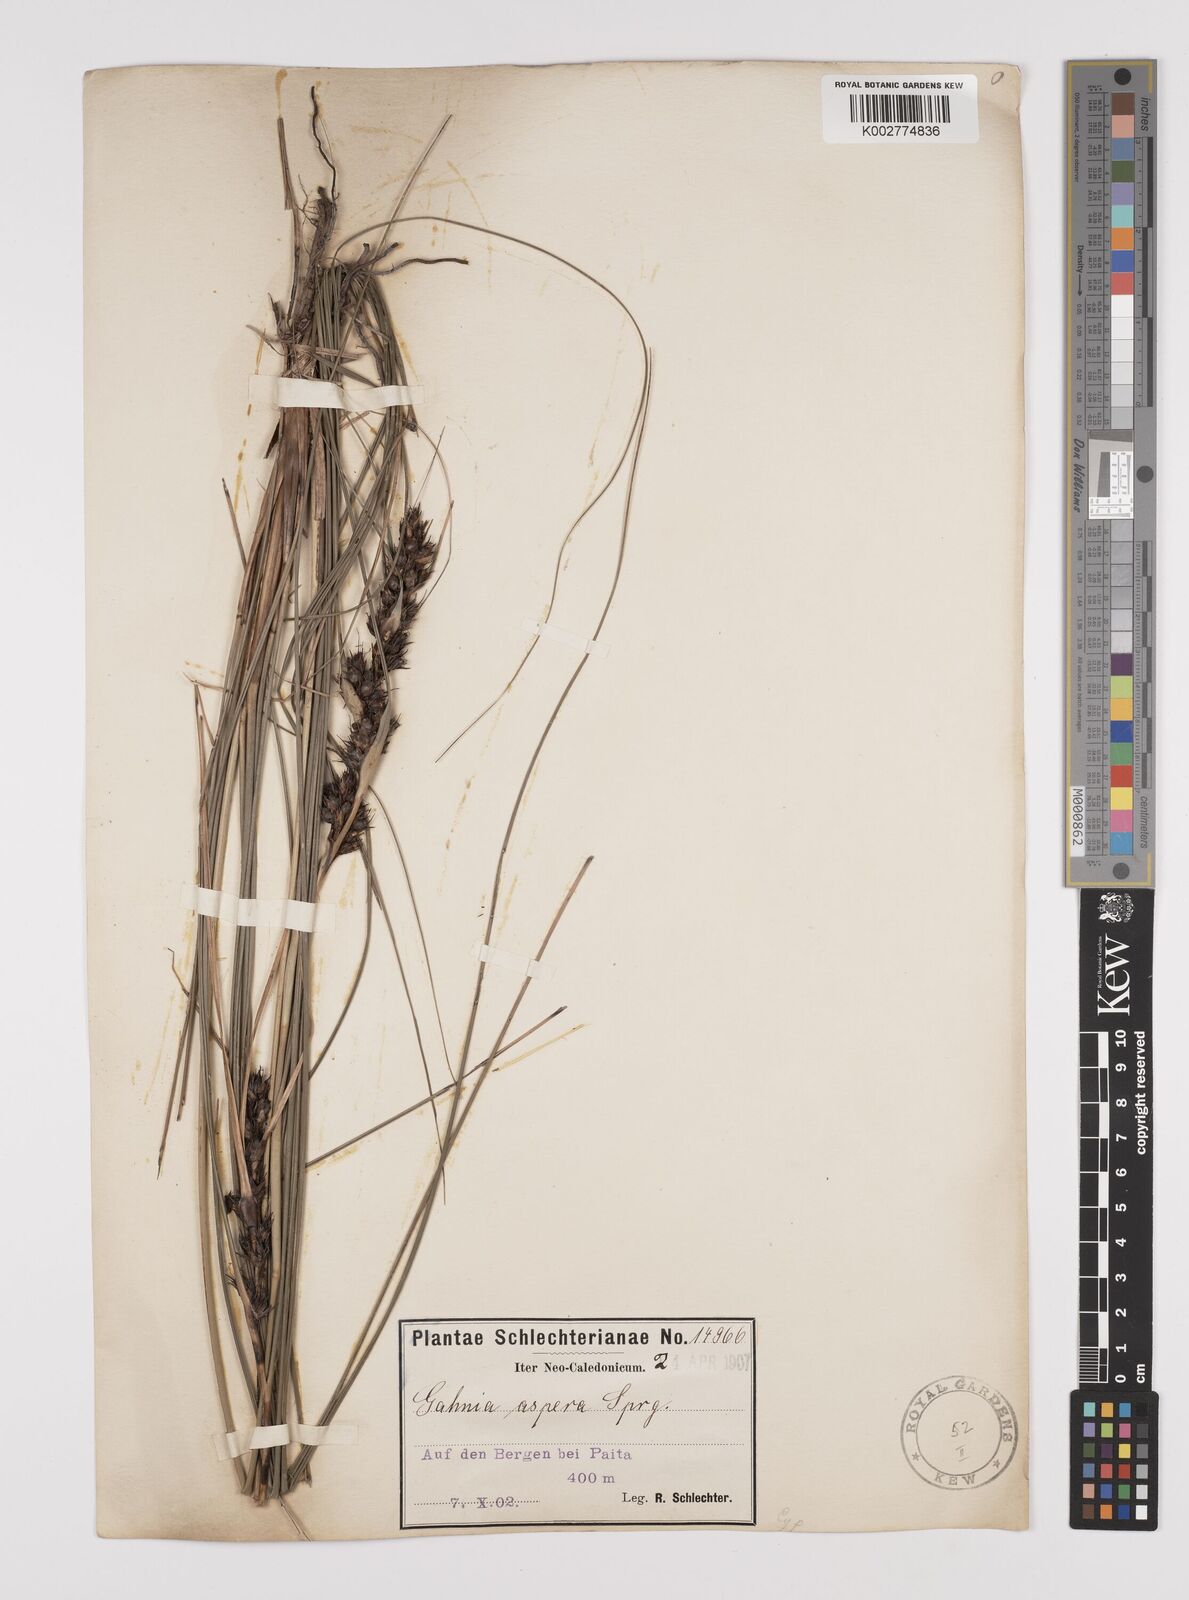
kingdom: Plantae
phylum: Tracheophyta
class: Liliopsida
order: Poales
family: Cyperaceae
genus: Gahnia
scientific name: Gahnia aspera
